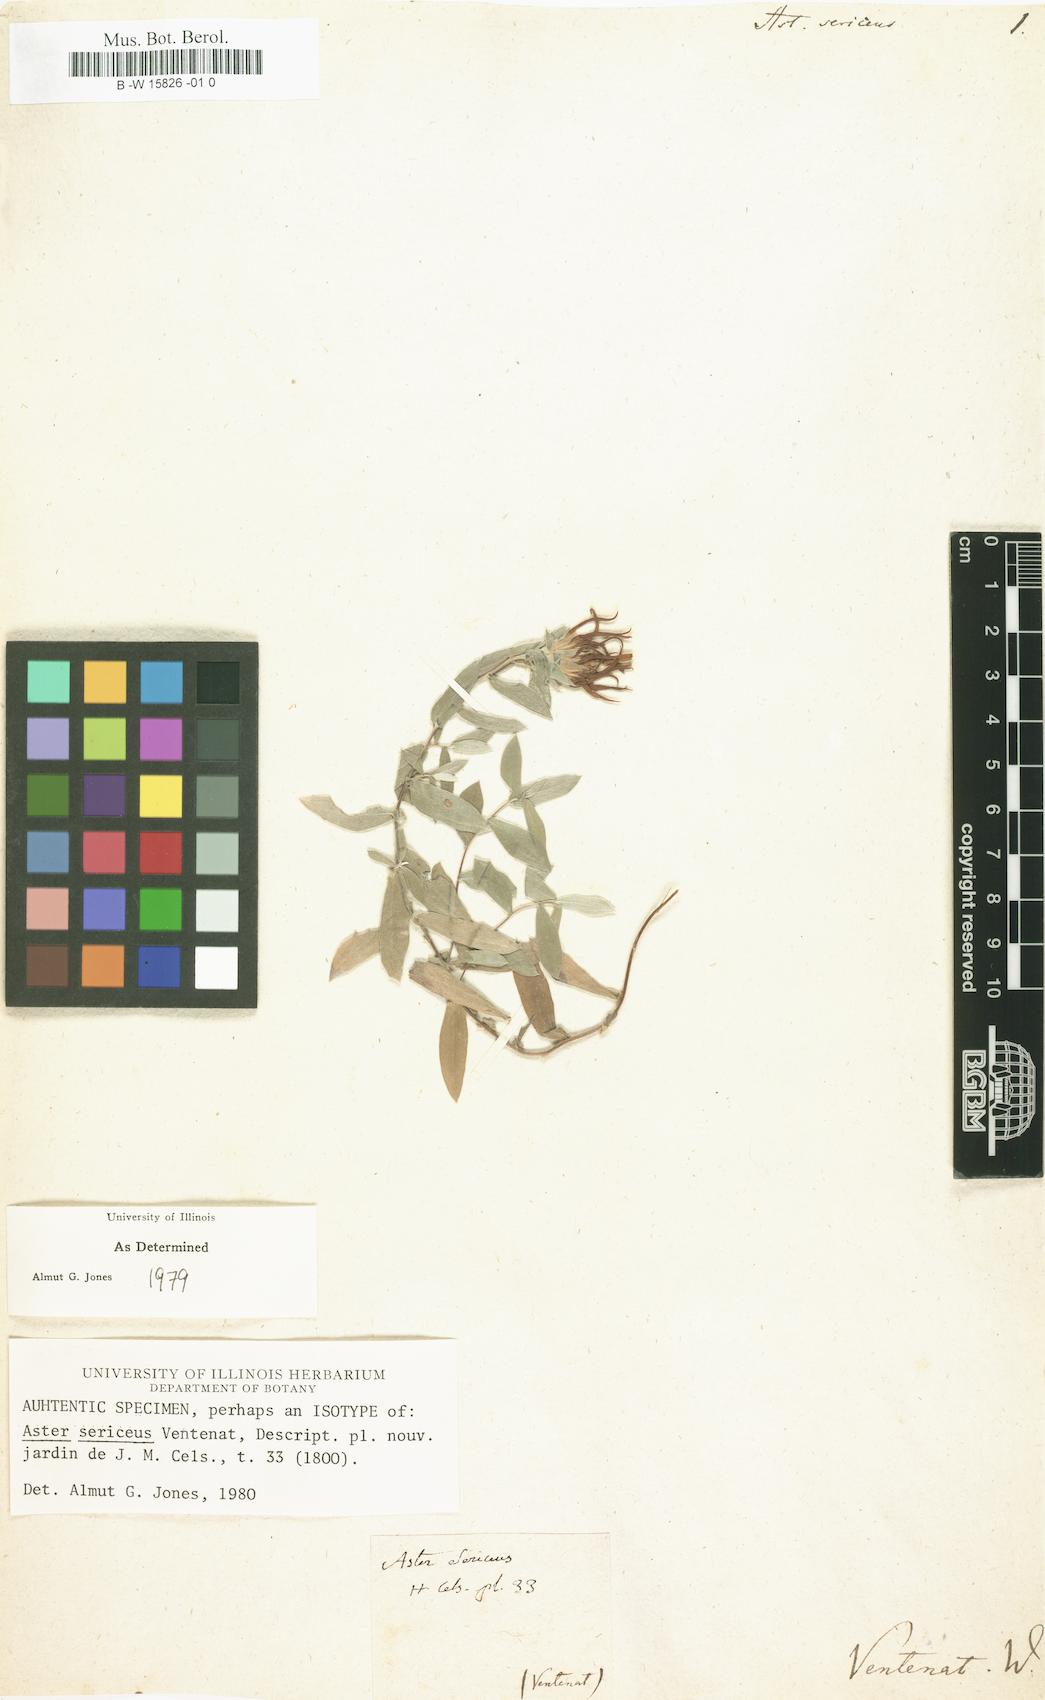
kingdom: Plantae
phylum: Tracheophyta
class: Magnoliopsida
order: Asterales
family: Asteraceae
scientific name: Asteraceae
